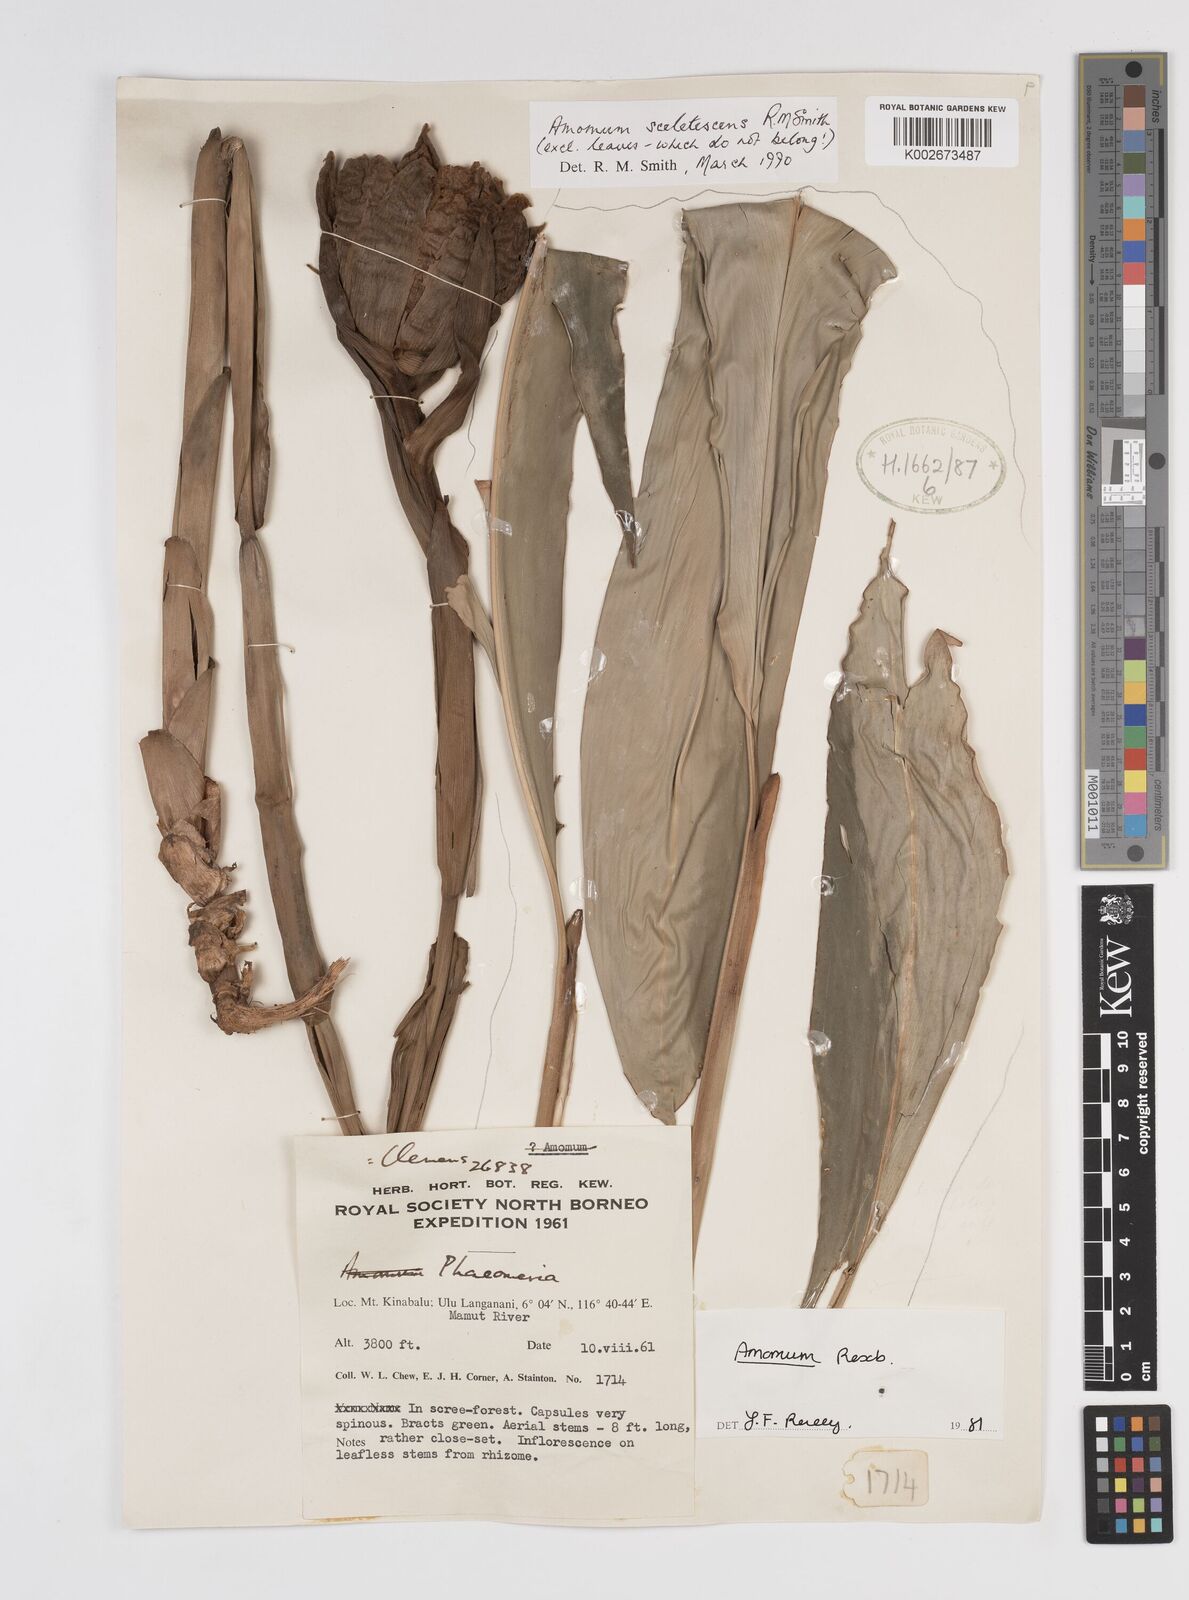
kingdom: Plantae
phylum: Tracheophyta
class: Liliopsida
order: Zingiberales
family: Zingiberaceae
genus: Meistera
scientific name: Meistera sceletescens
